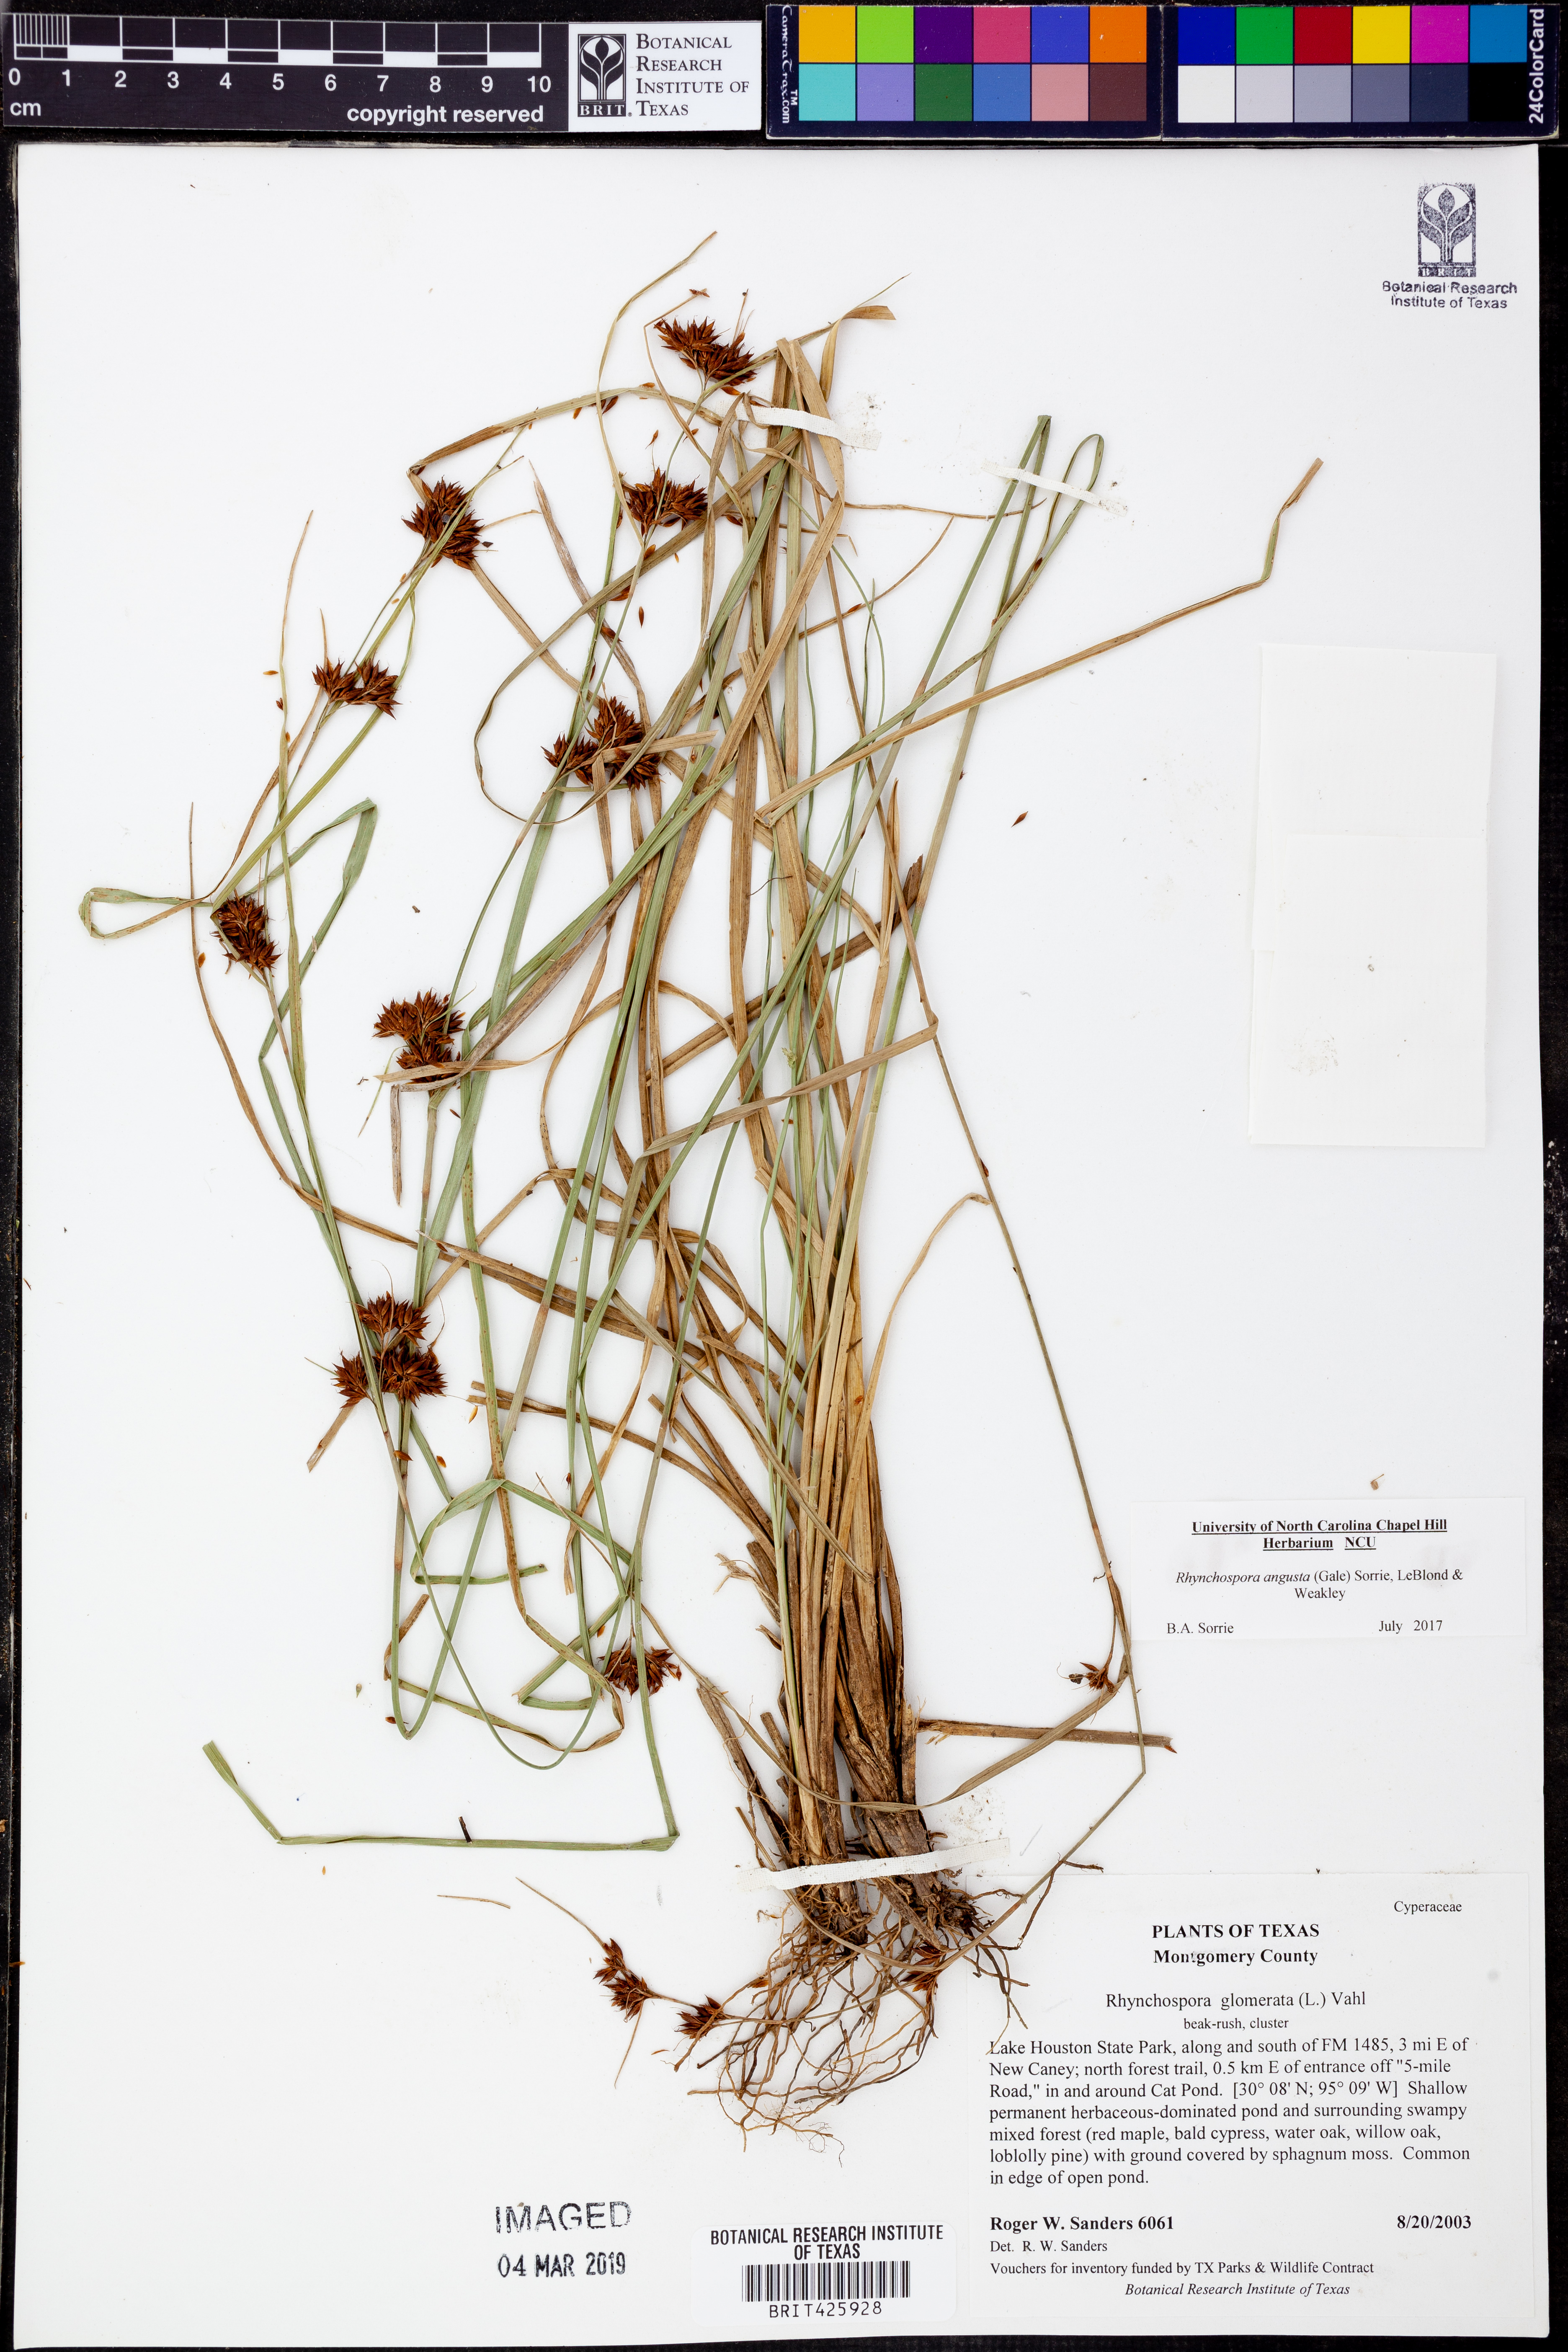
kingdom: Plantae
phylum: Tracheophyta
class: Liliopsida
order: Poales
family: Cyperaceae
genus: Rhynchospora
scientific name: Rhynchospora angusta
